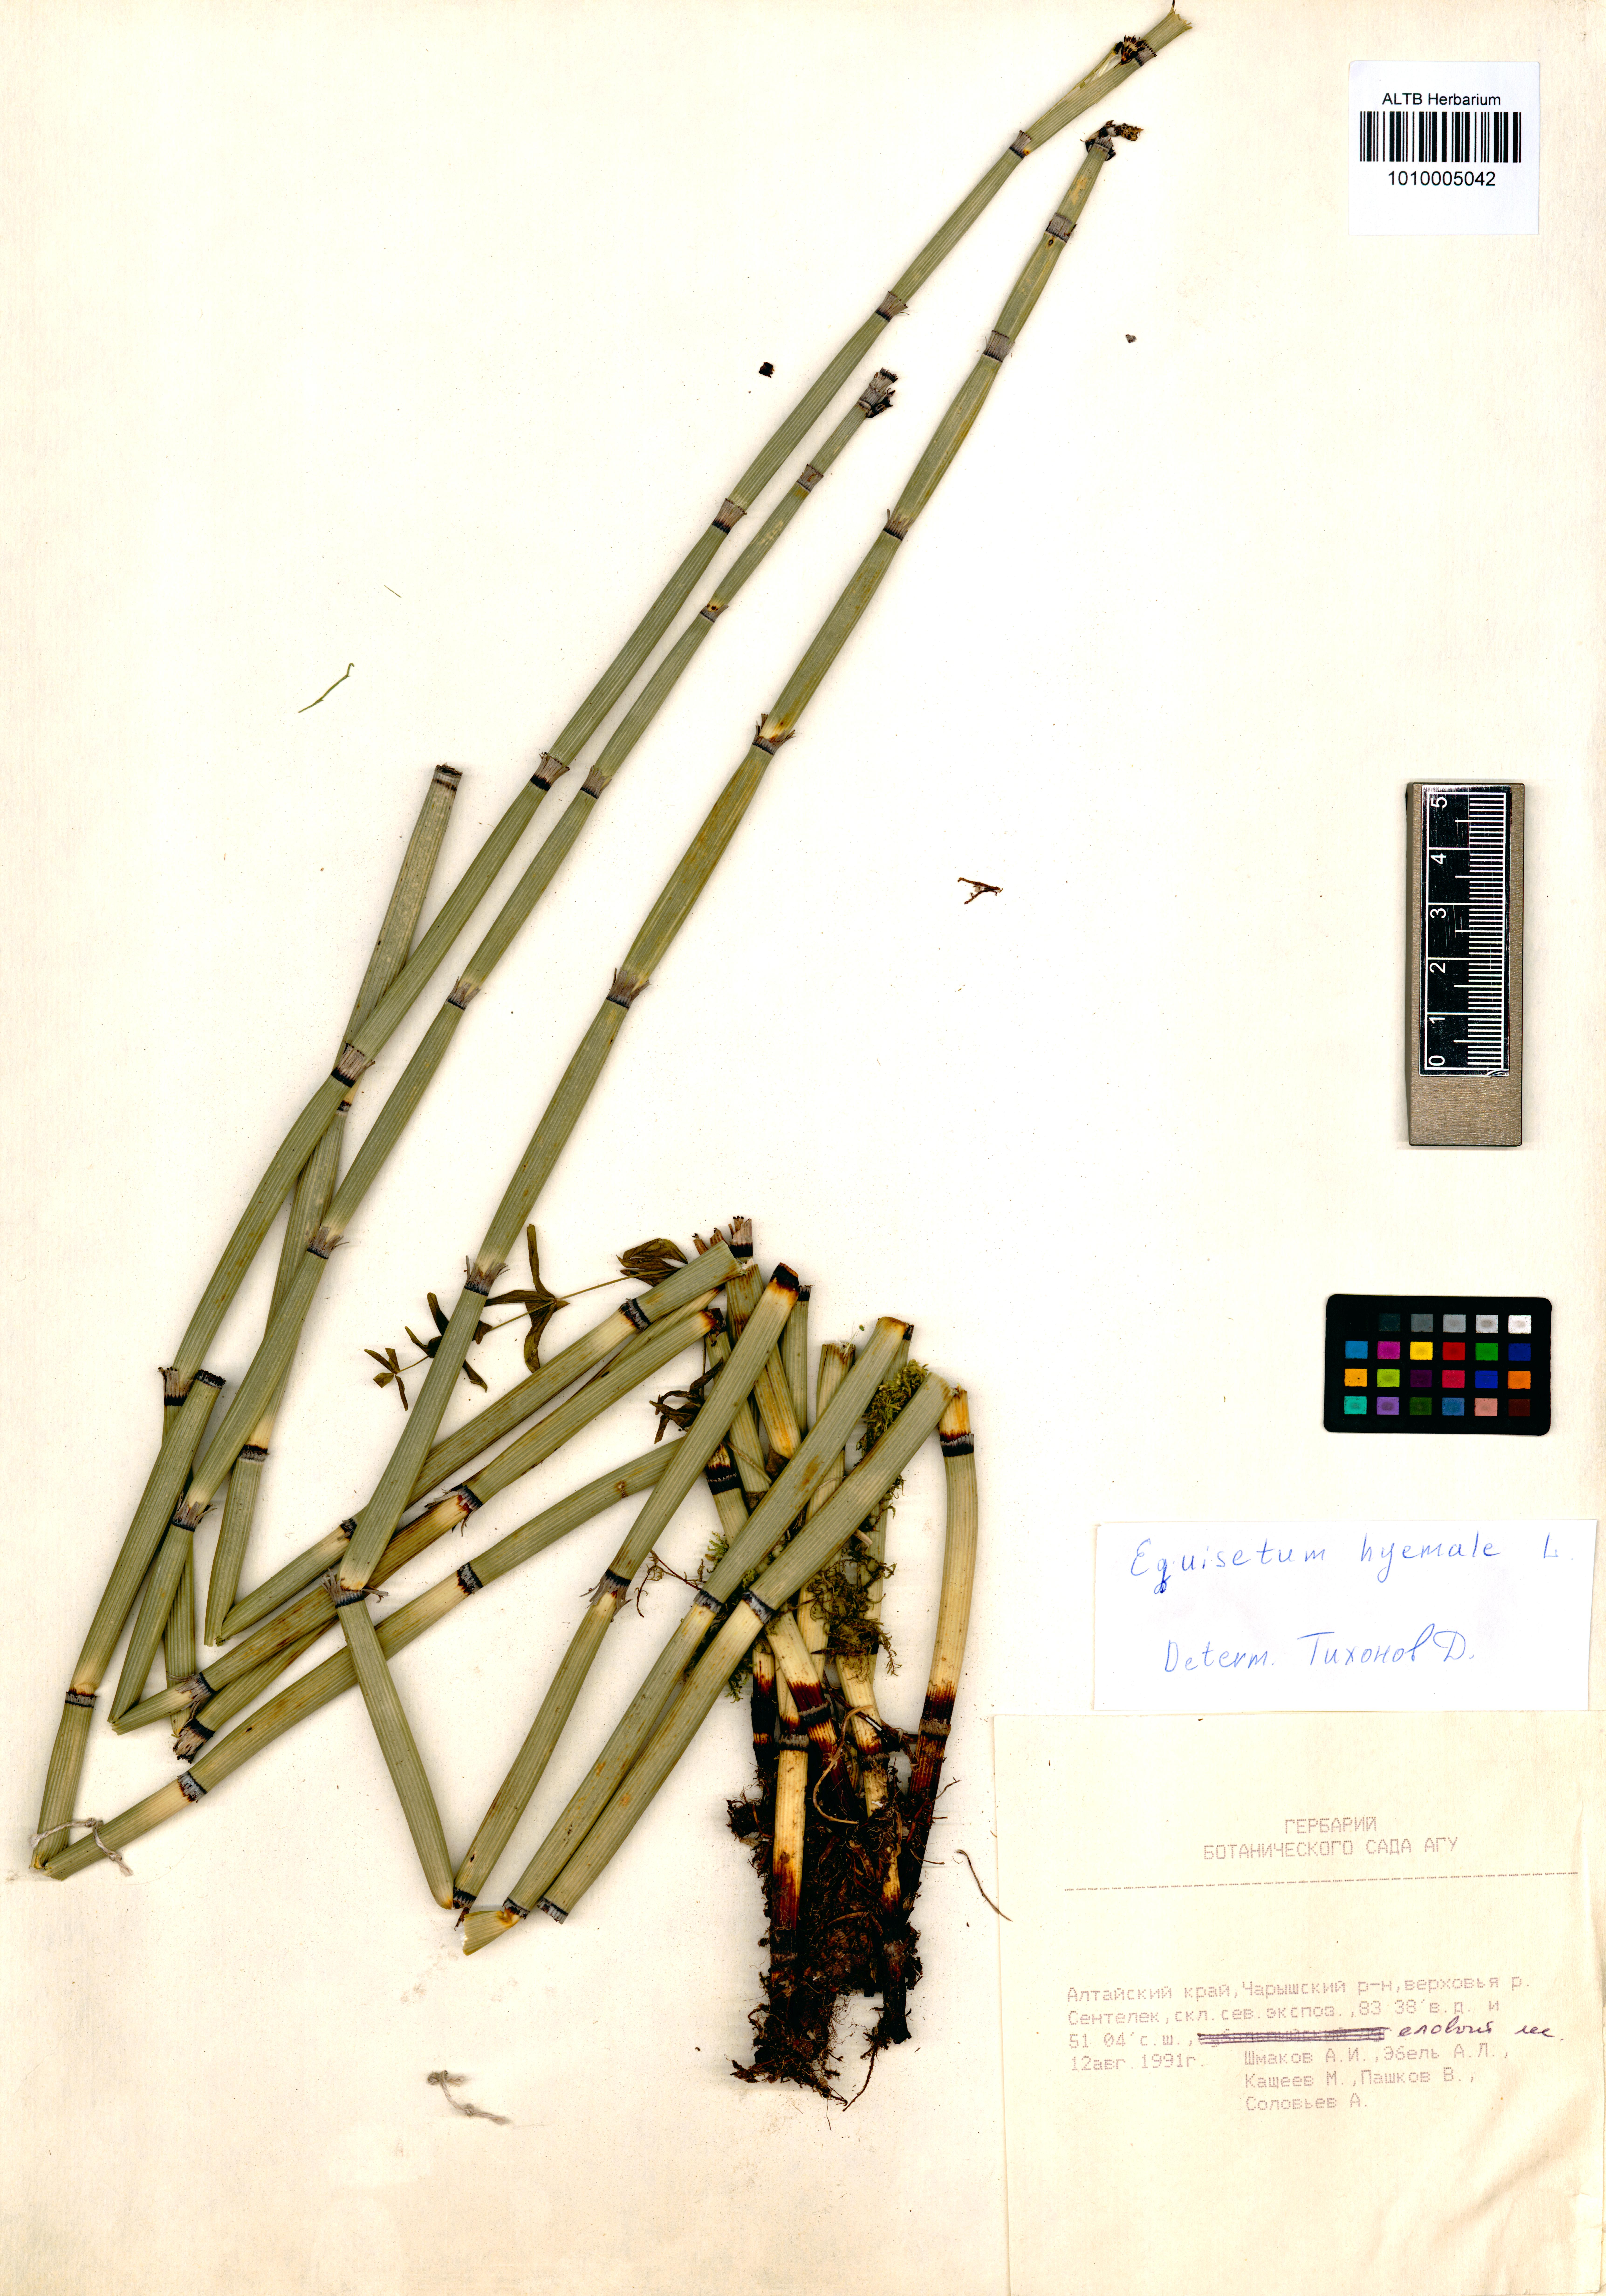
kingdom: Plantae
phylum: Tracheophyta
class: Polypodiopsida
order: Equisetales
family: Equisetaceae
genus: Equisetum
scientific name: Equisetum hyemale
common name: Rough horsetail
